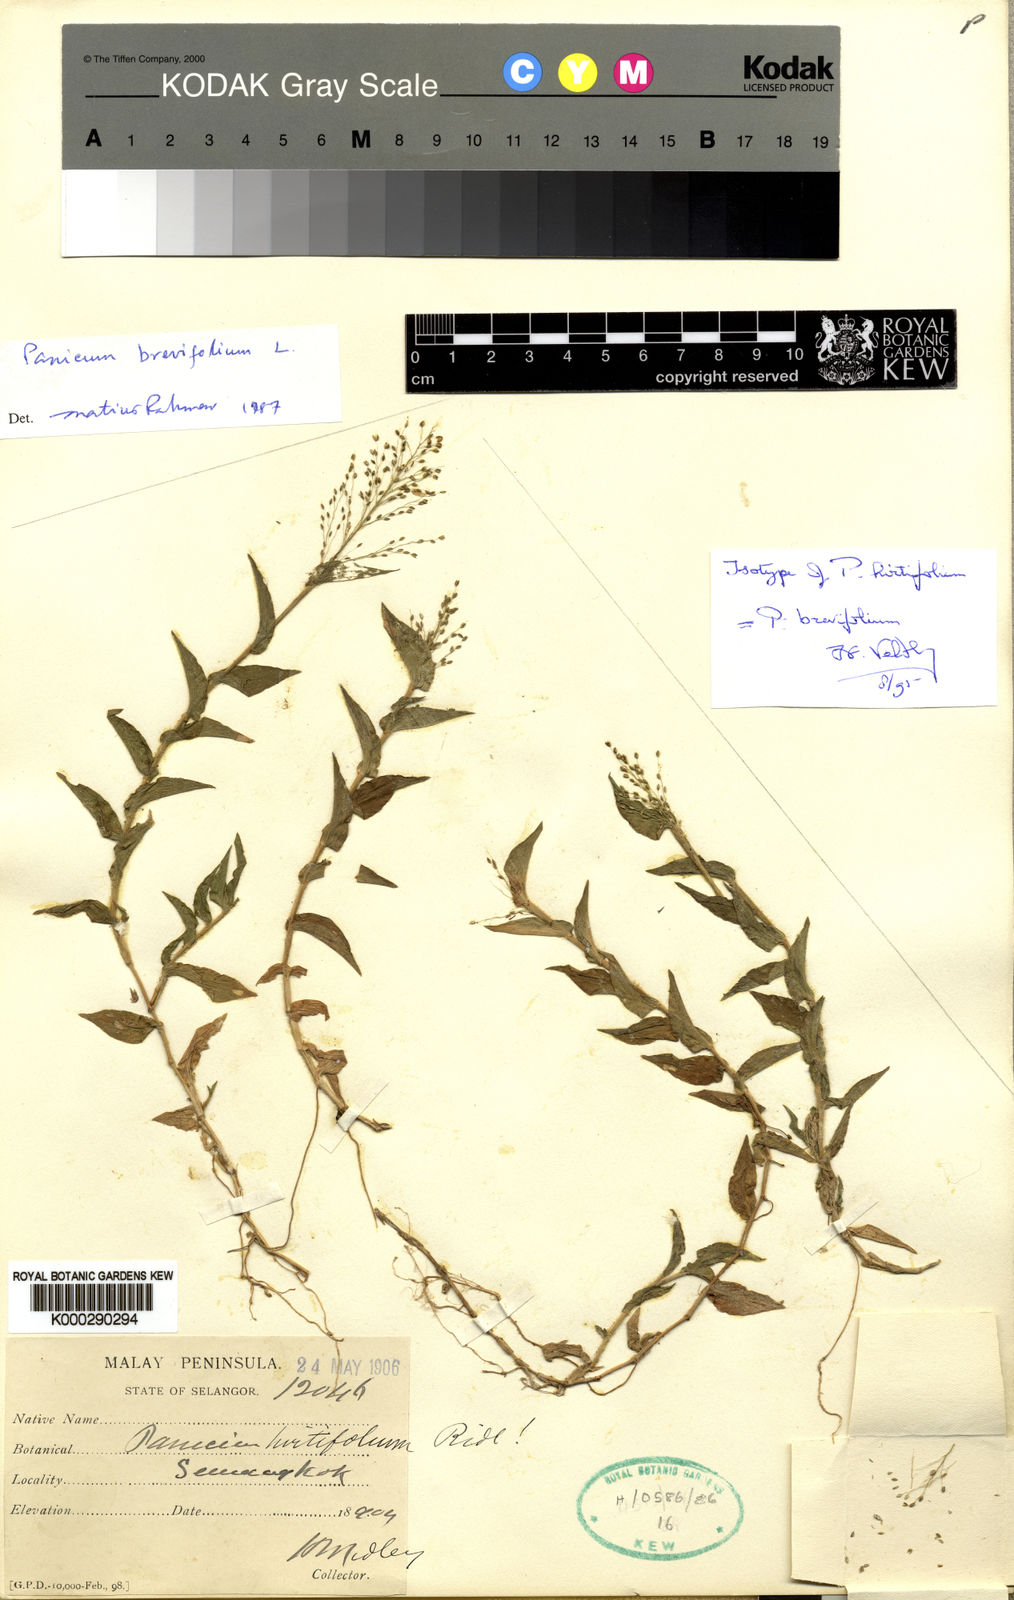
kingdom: Plantae
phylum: Tracheophyta
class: Liliopsida
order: Poales
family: Poaceae
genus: Panicum
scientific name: Panicum brevifolium
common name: Shortleaf panic grass
